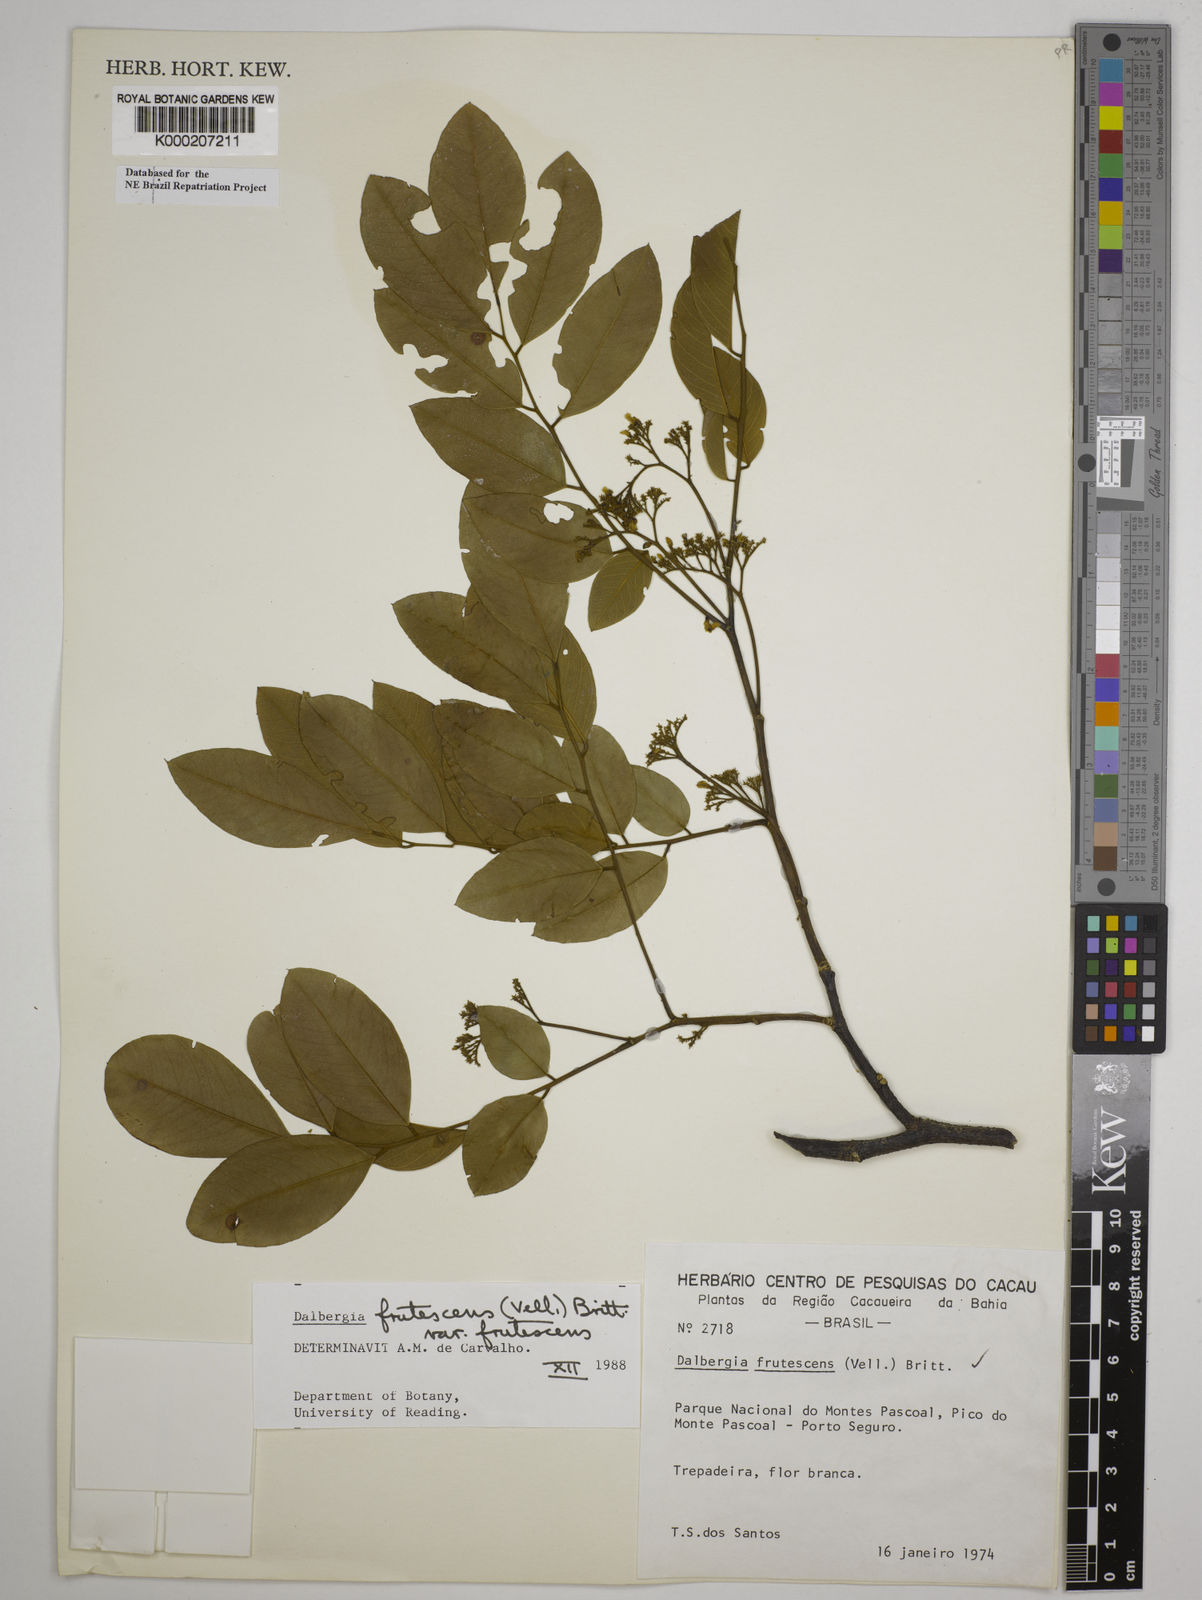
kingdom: Plantae
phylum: Tracheophyta
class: Magnoliopsida
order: Fabales
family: Fabaceae
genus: Dalbergia
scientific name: Dalbergia frutescens
